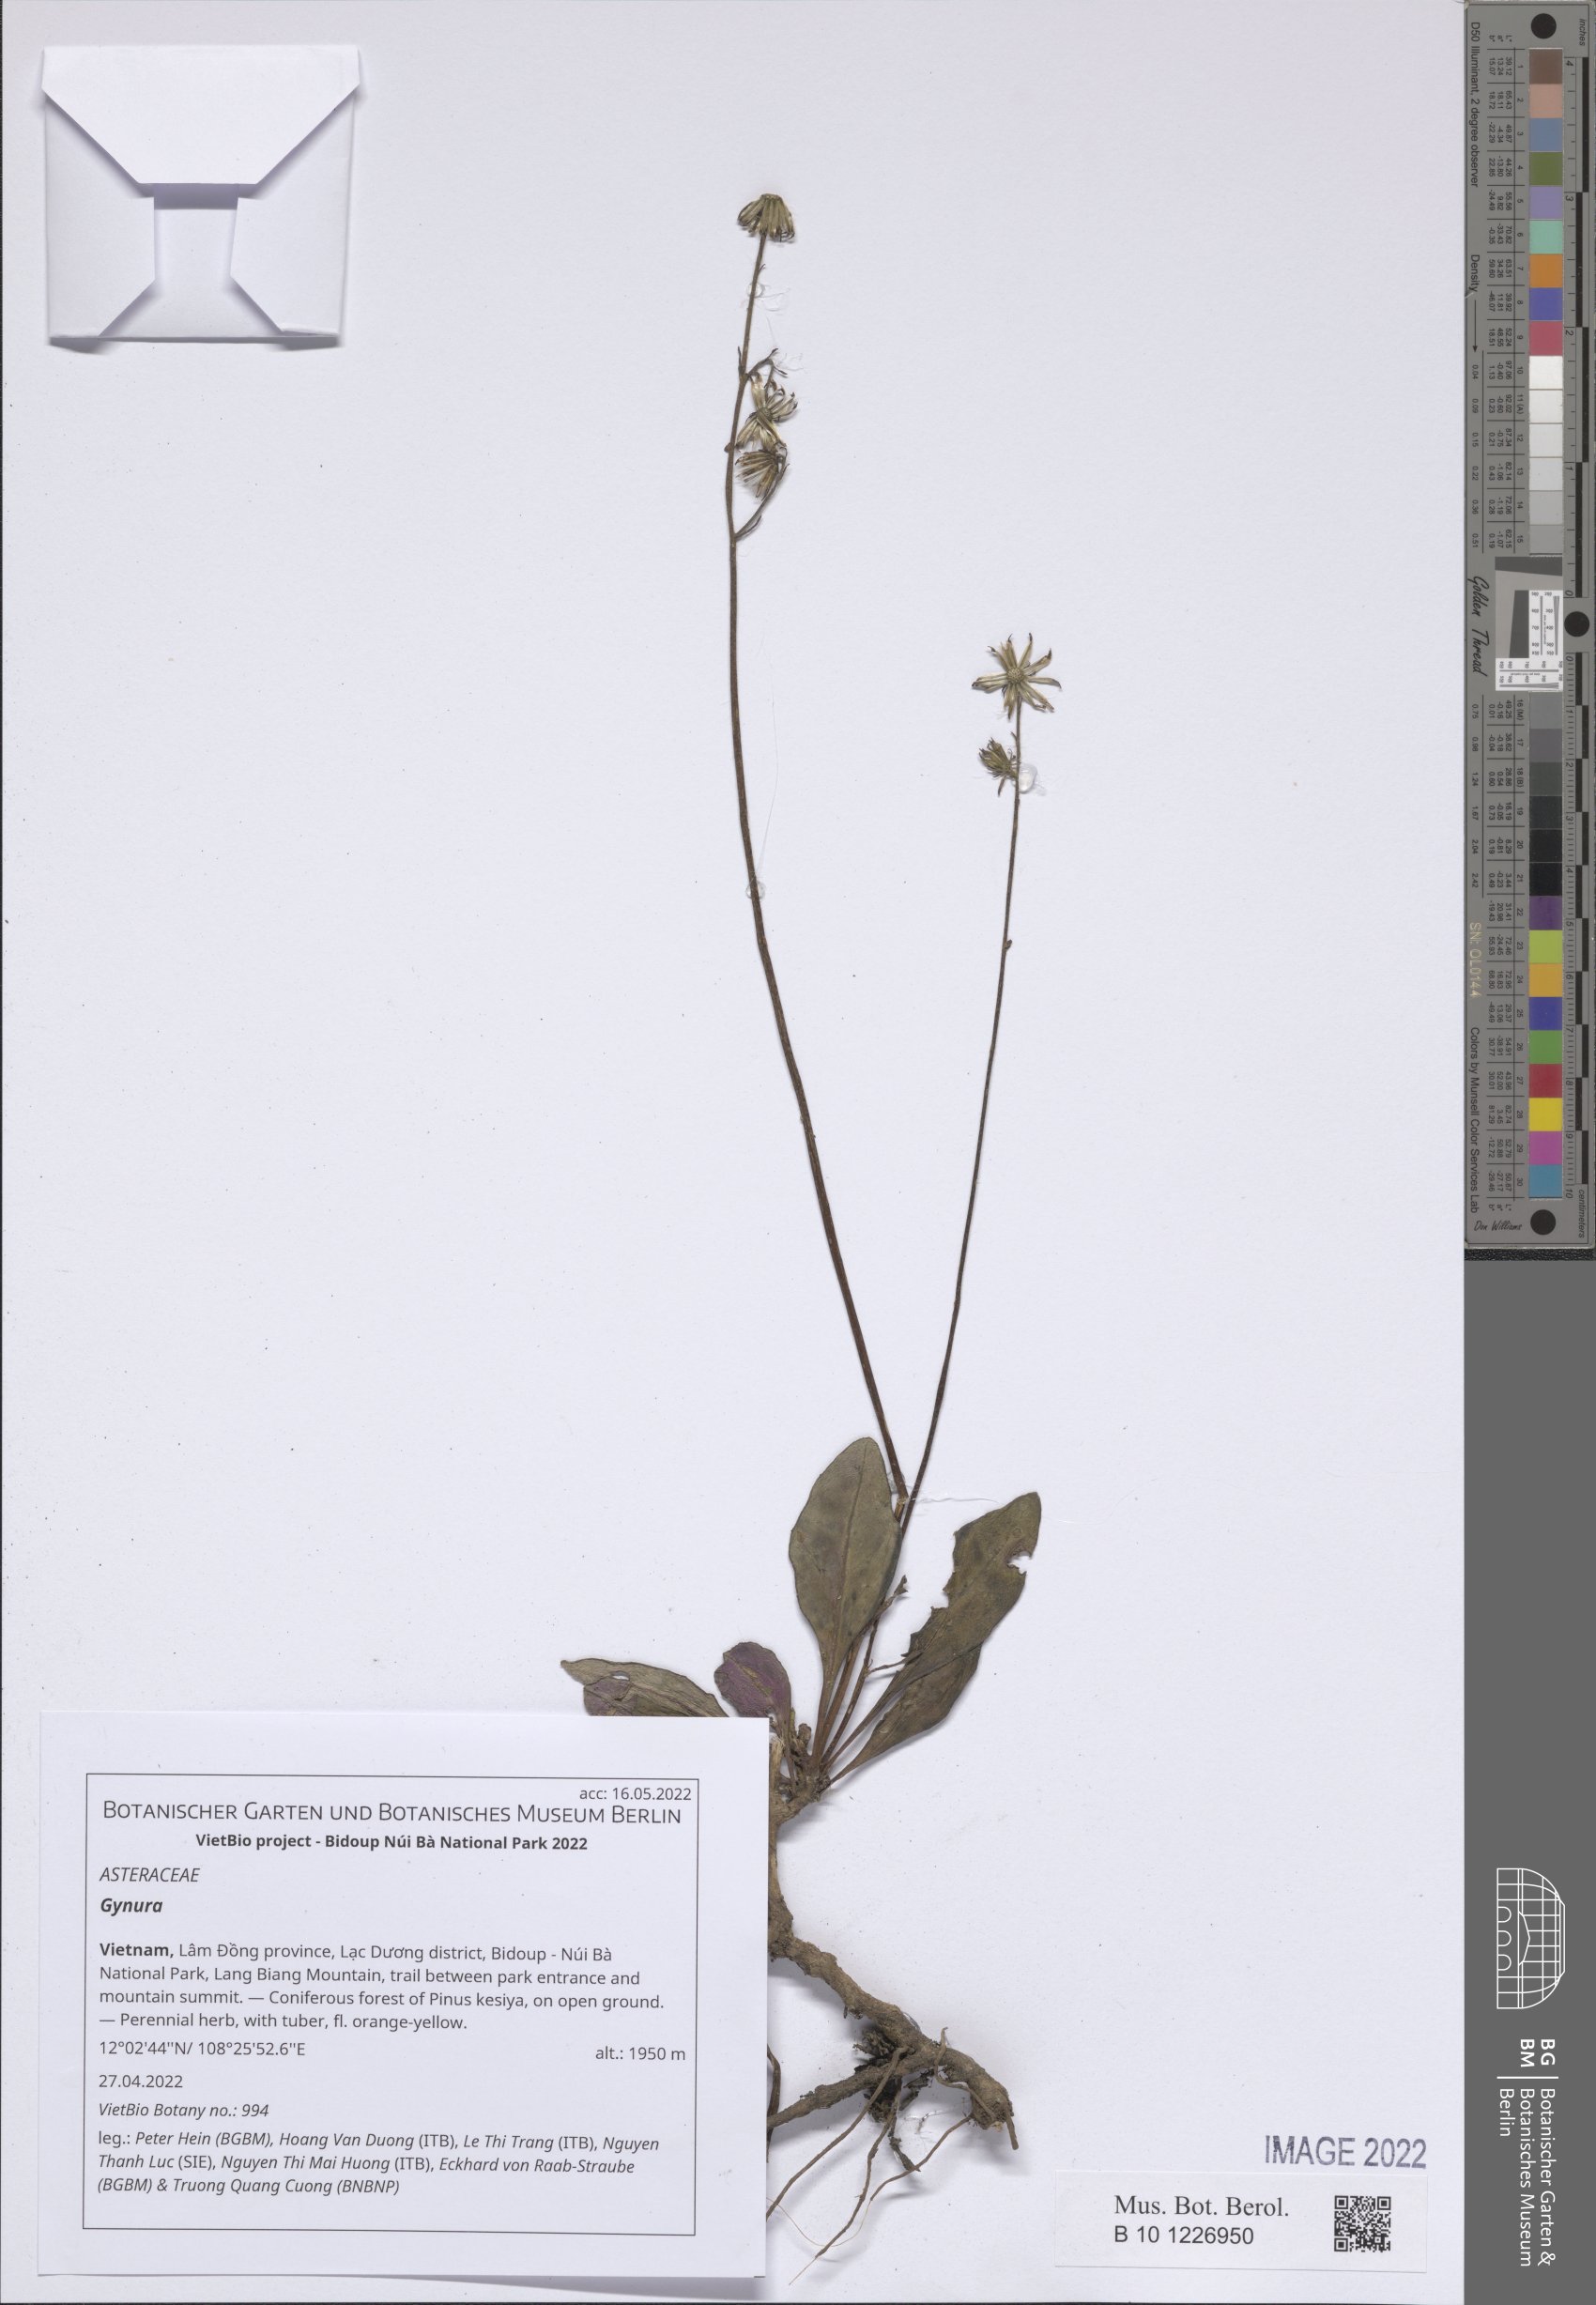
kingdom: Plantae
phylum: Tracheophyta
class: Magnoliopsida
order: Asterales
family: Asteraceae
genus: Gynura
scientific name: Gynura
